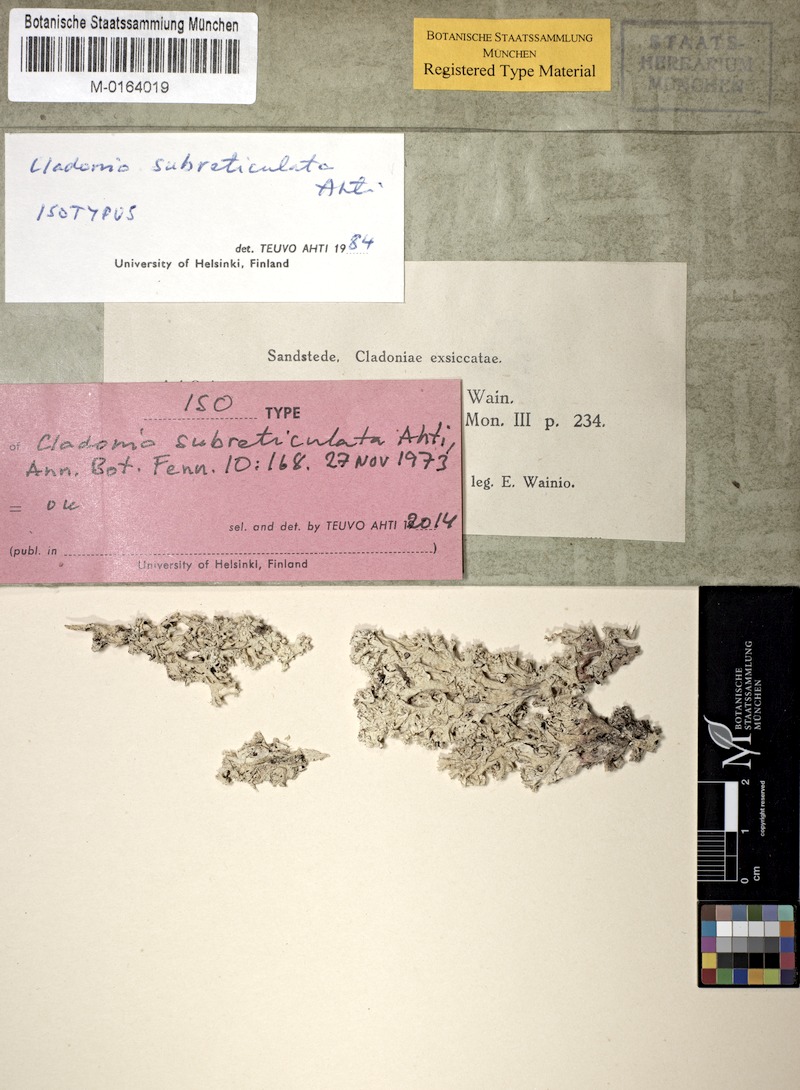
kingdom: Fungi
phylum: Ascomycota
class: Lecanoromycetes
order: Lecanorales
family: Cladoniaceae
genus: Cladonia
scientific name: Cladonia subreticulata
